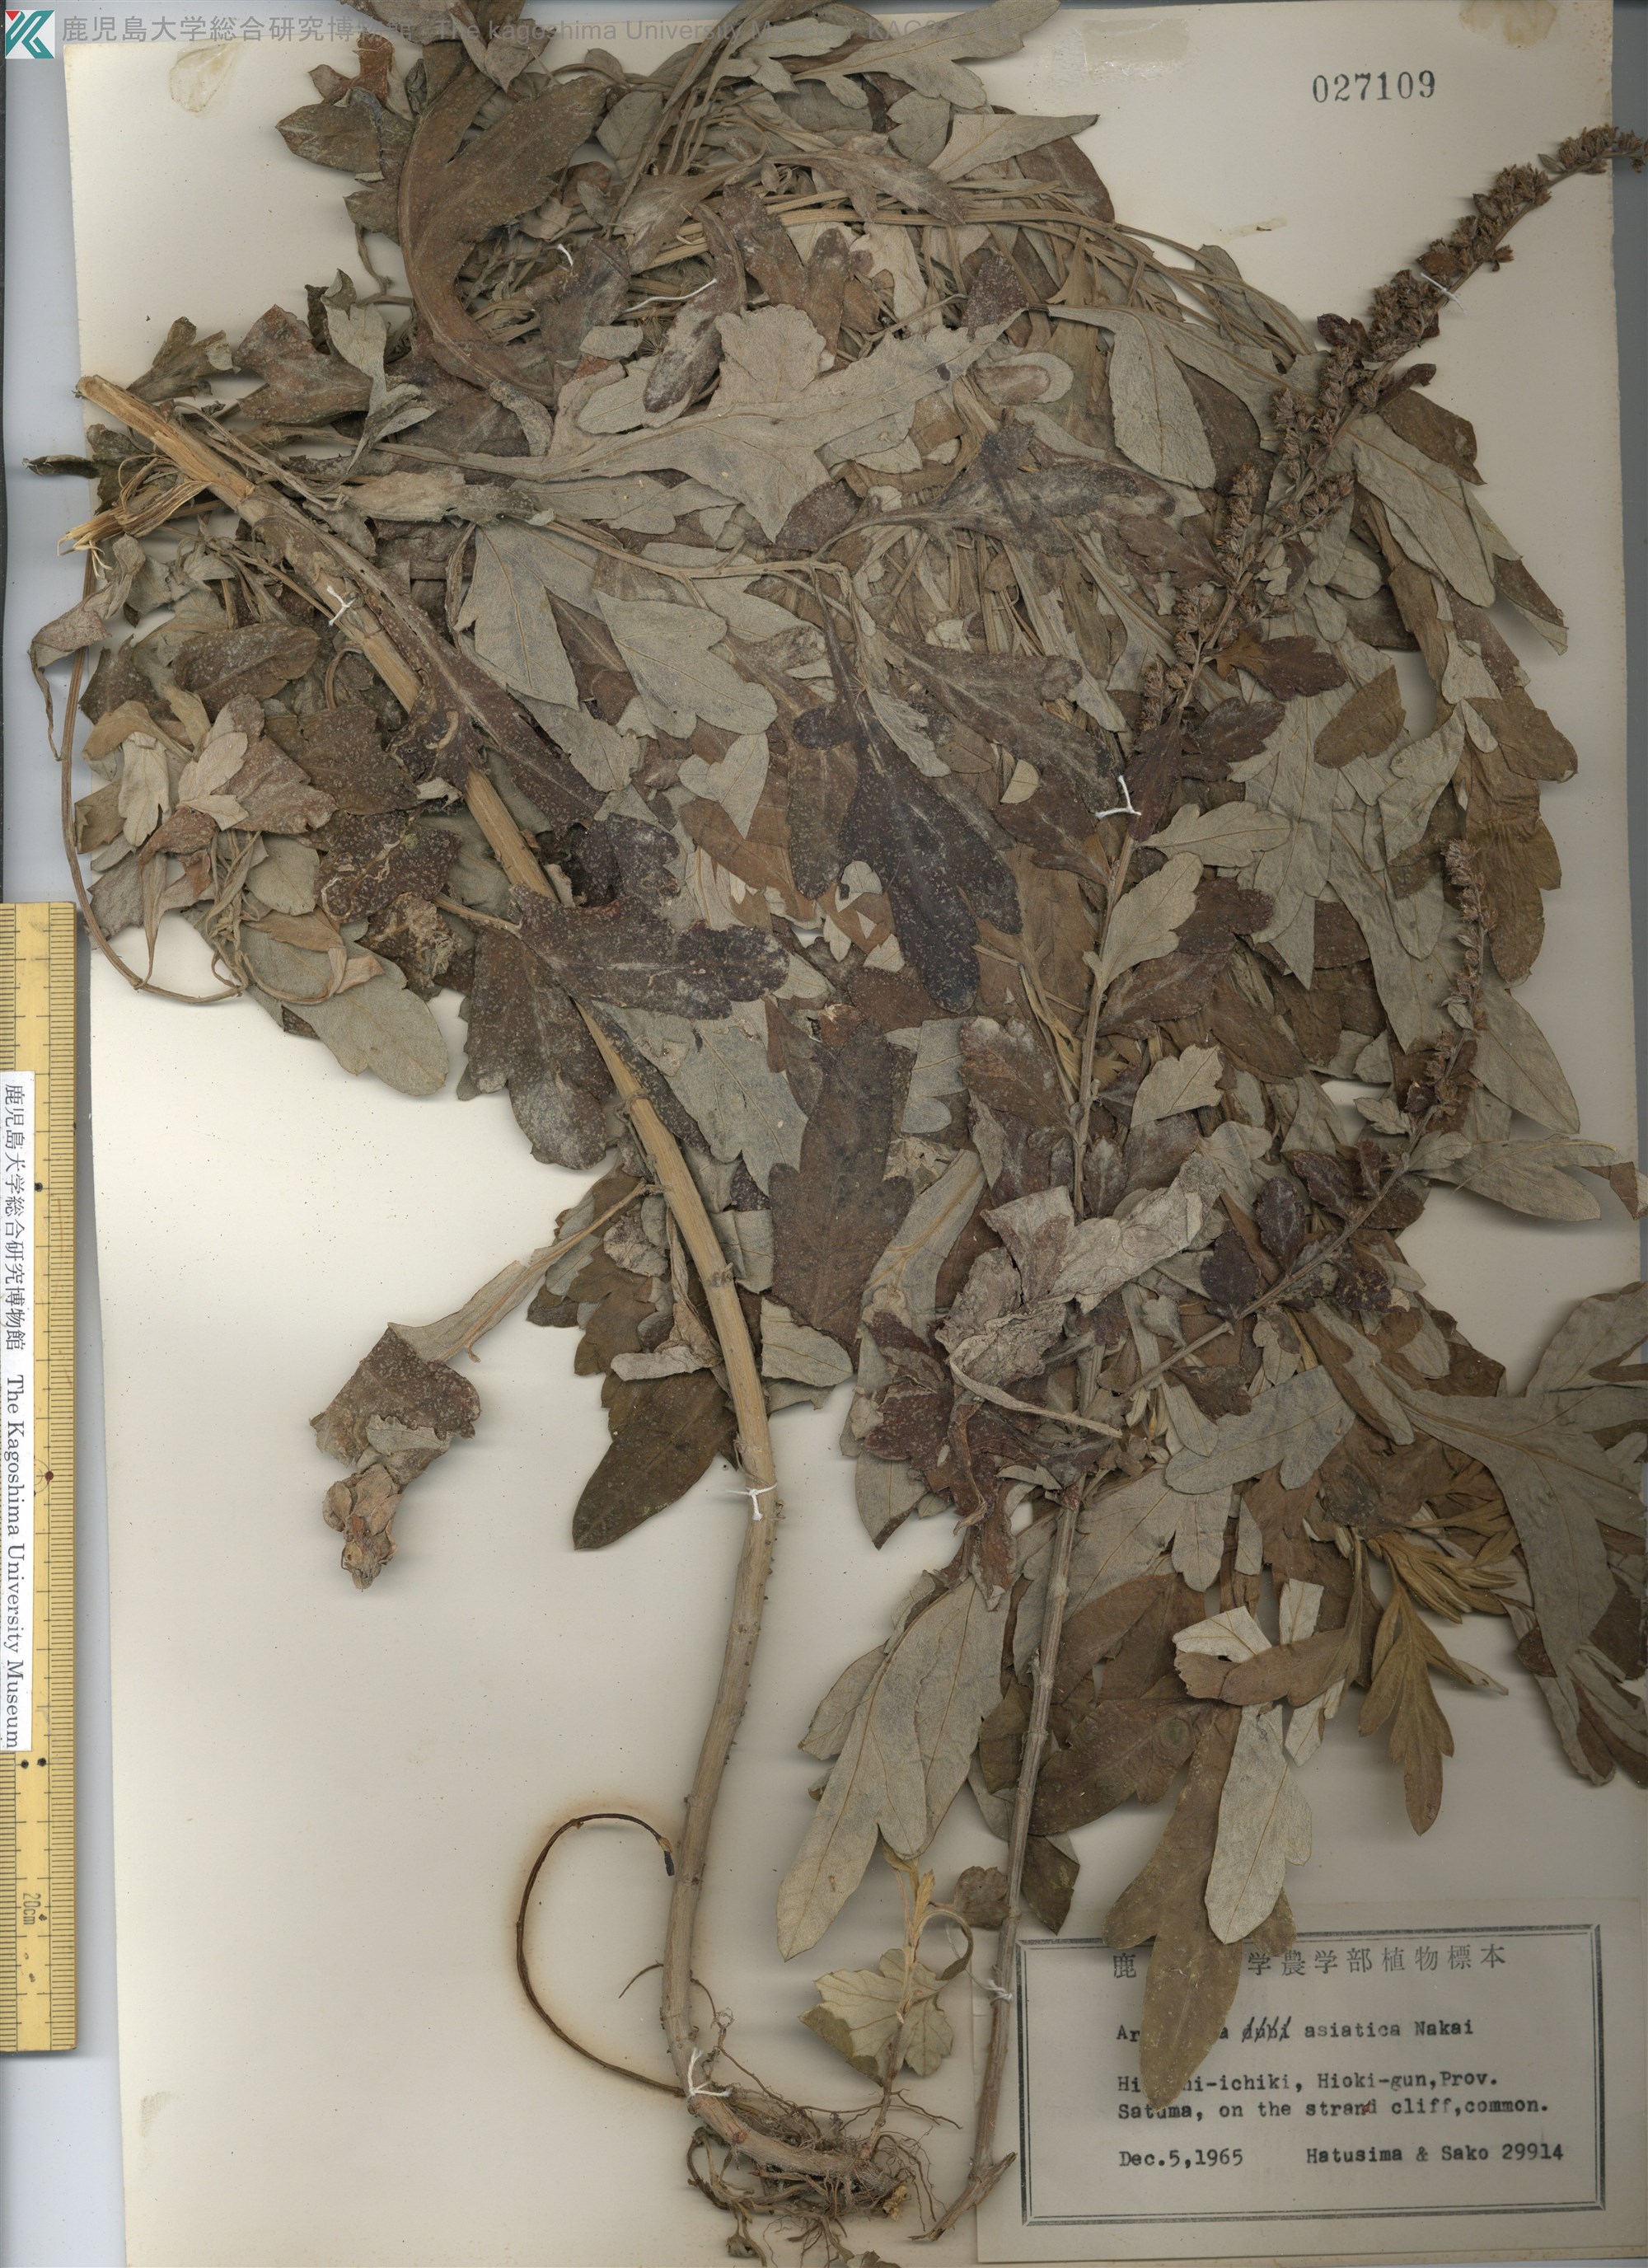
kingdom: Plantae
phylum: Tracheophyta
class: Magnoliopsida
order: Asterales
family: Asteraceae
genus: Artemisia
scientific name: Artemisia indica
